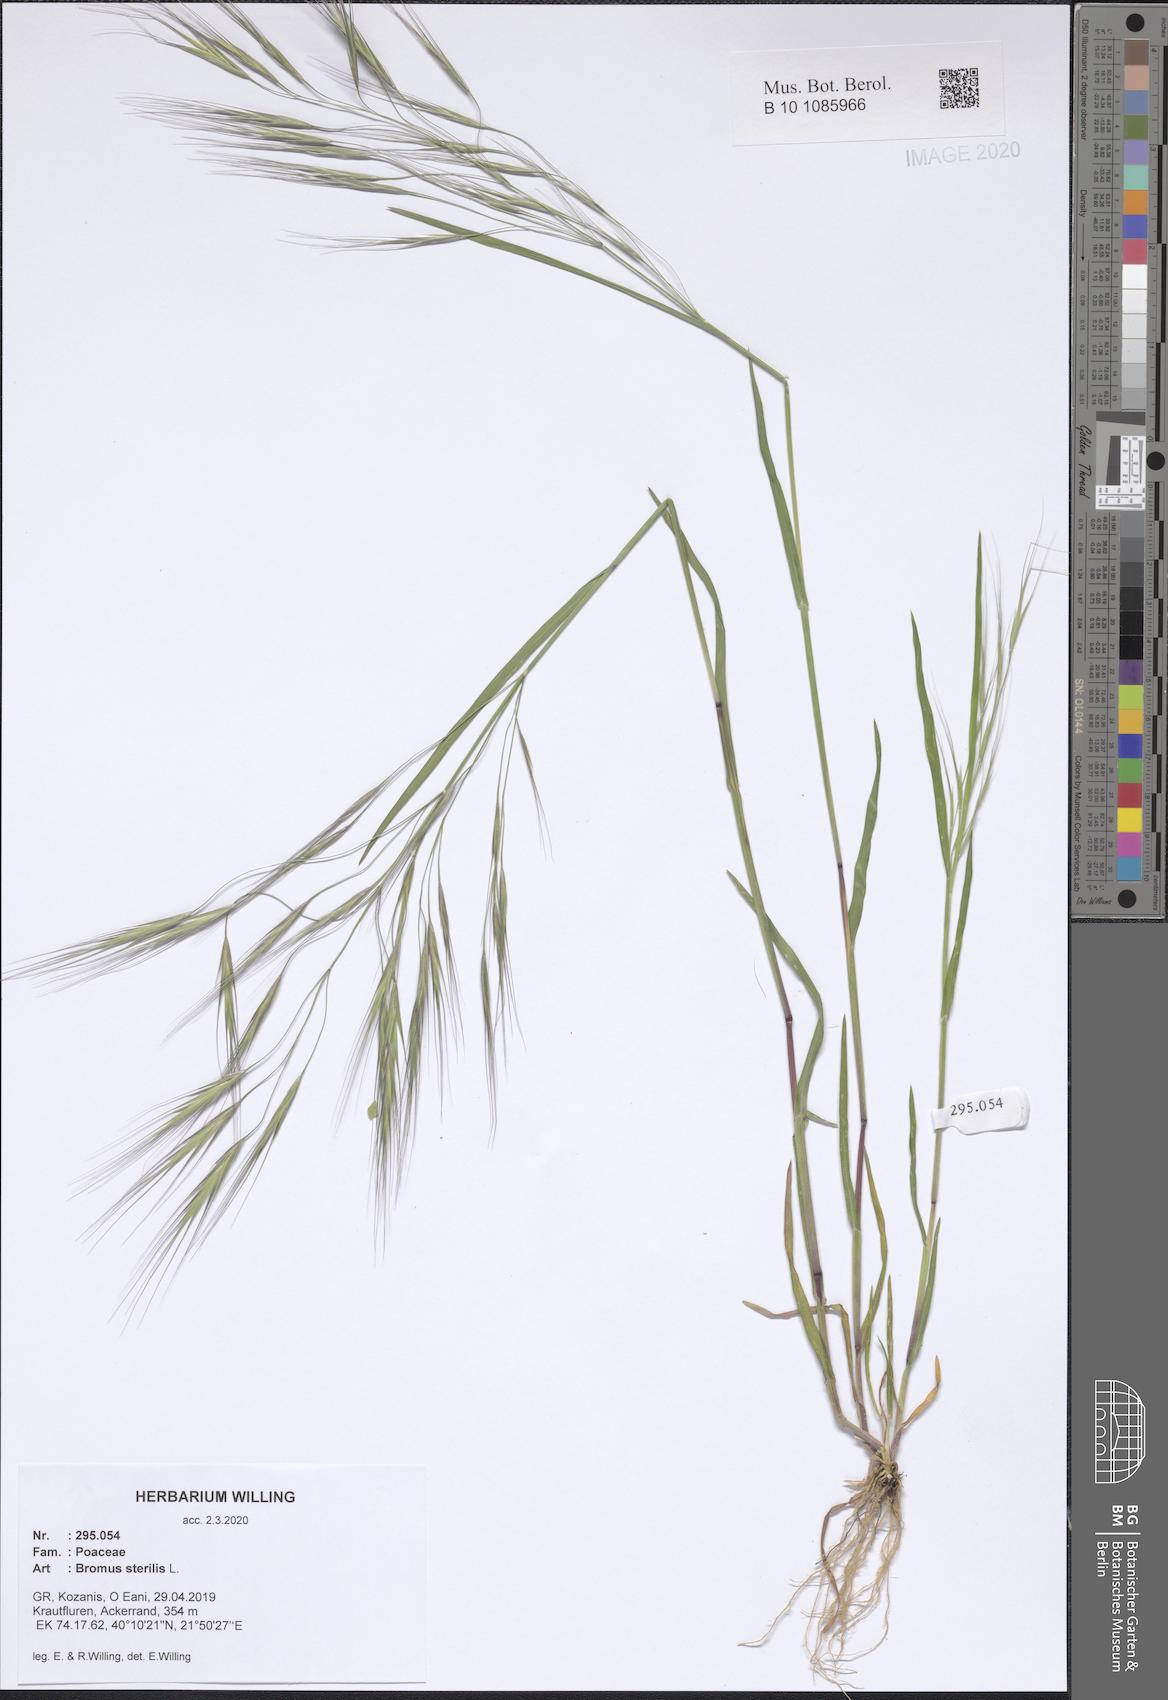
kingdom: Plantae
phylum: Tracheophyta
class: Liliopsida
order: Poales
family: Poaceae
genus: Bromus
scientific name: Bromus sterilis
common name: Poverty brome
